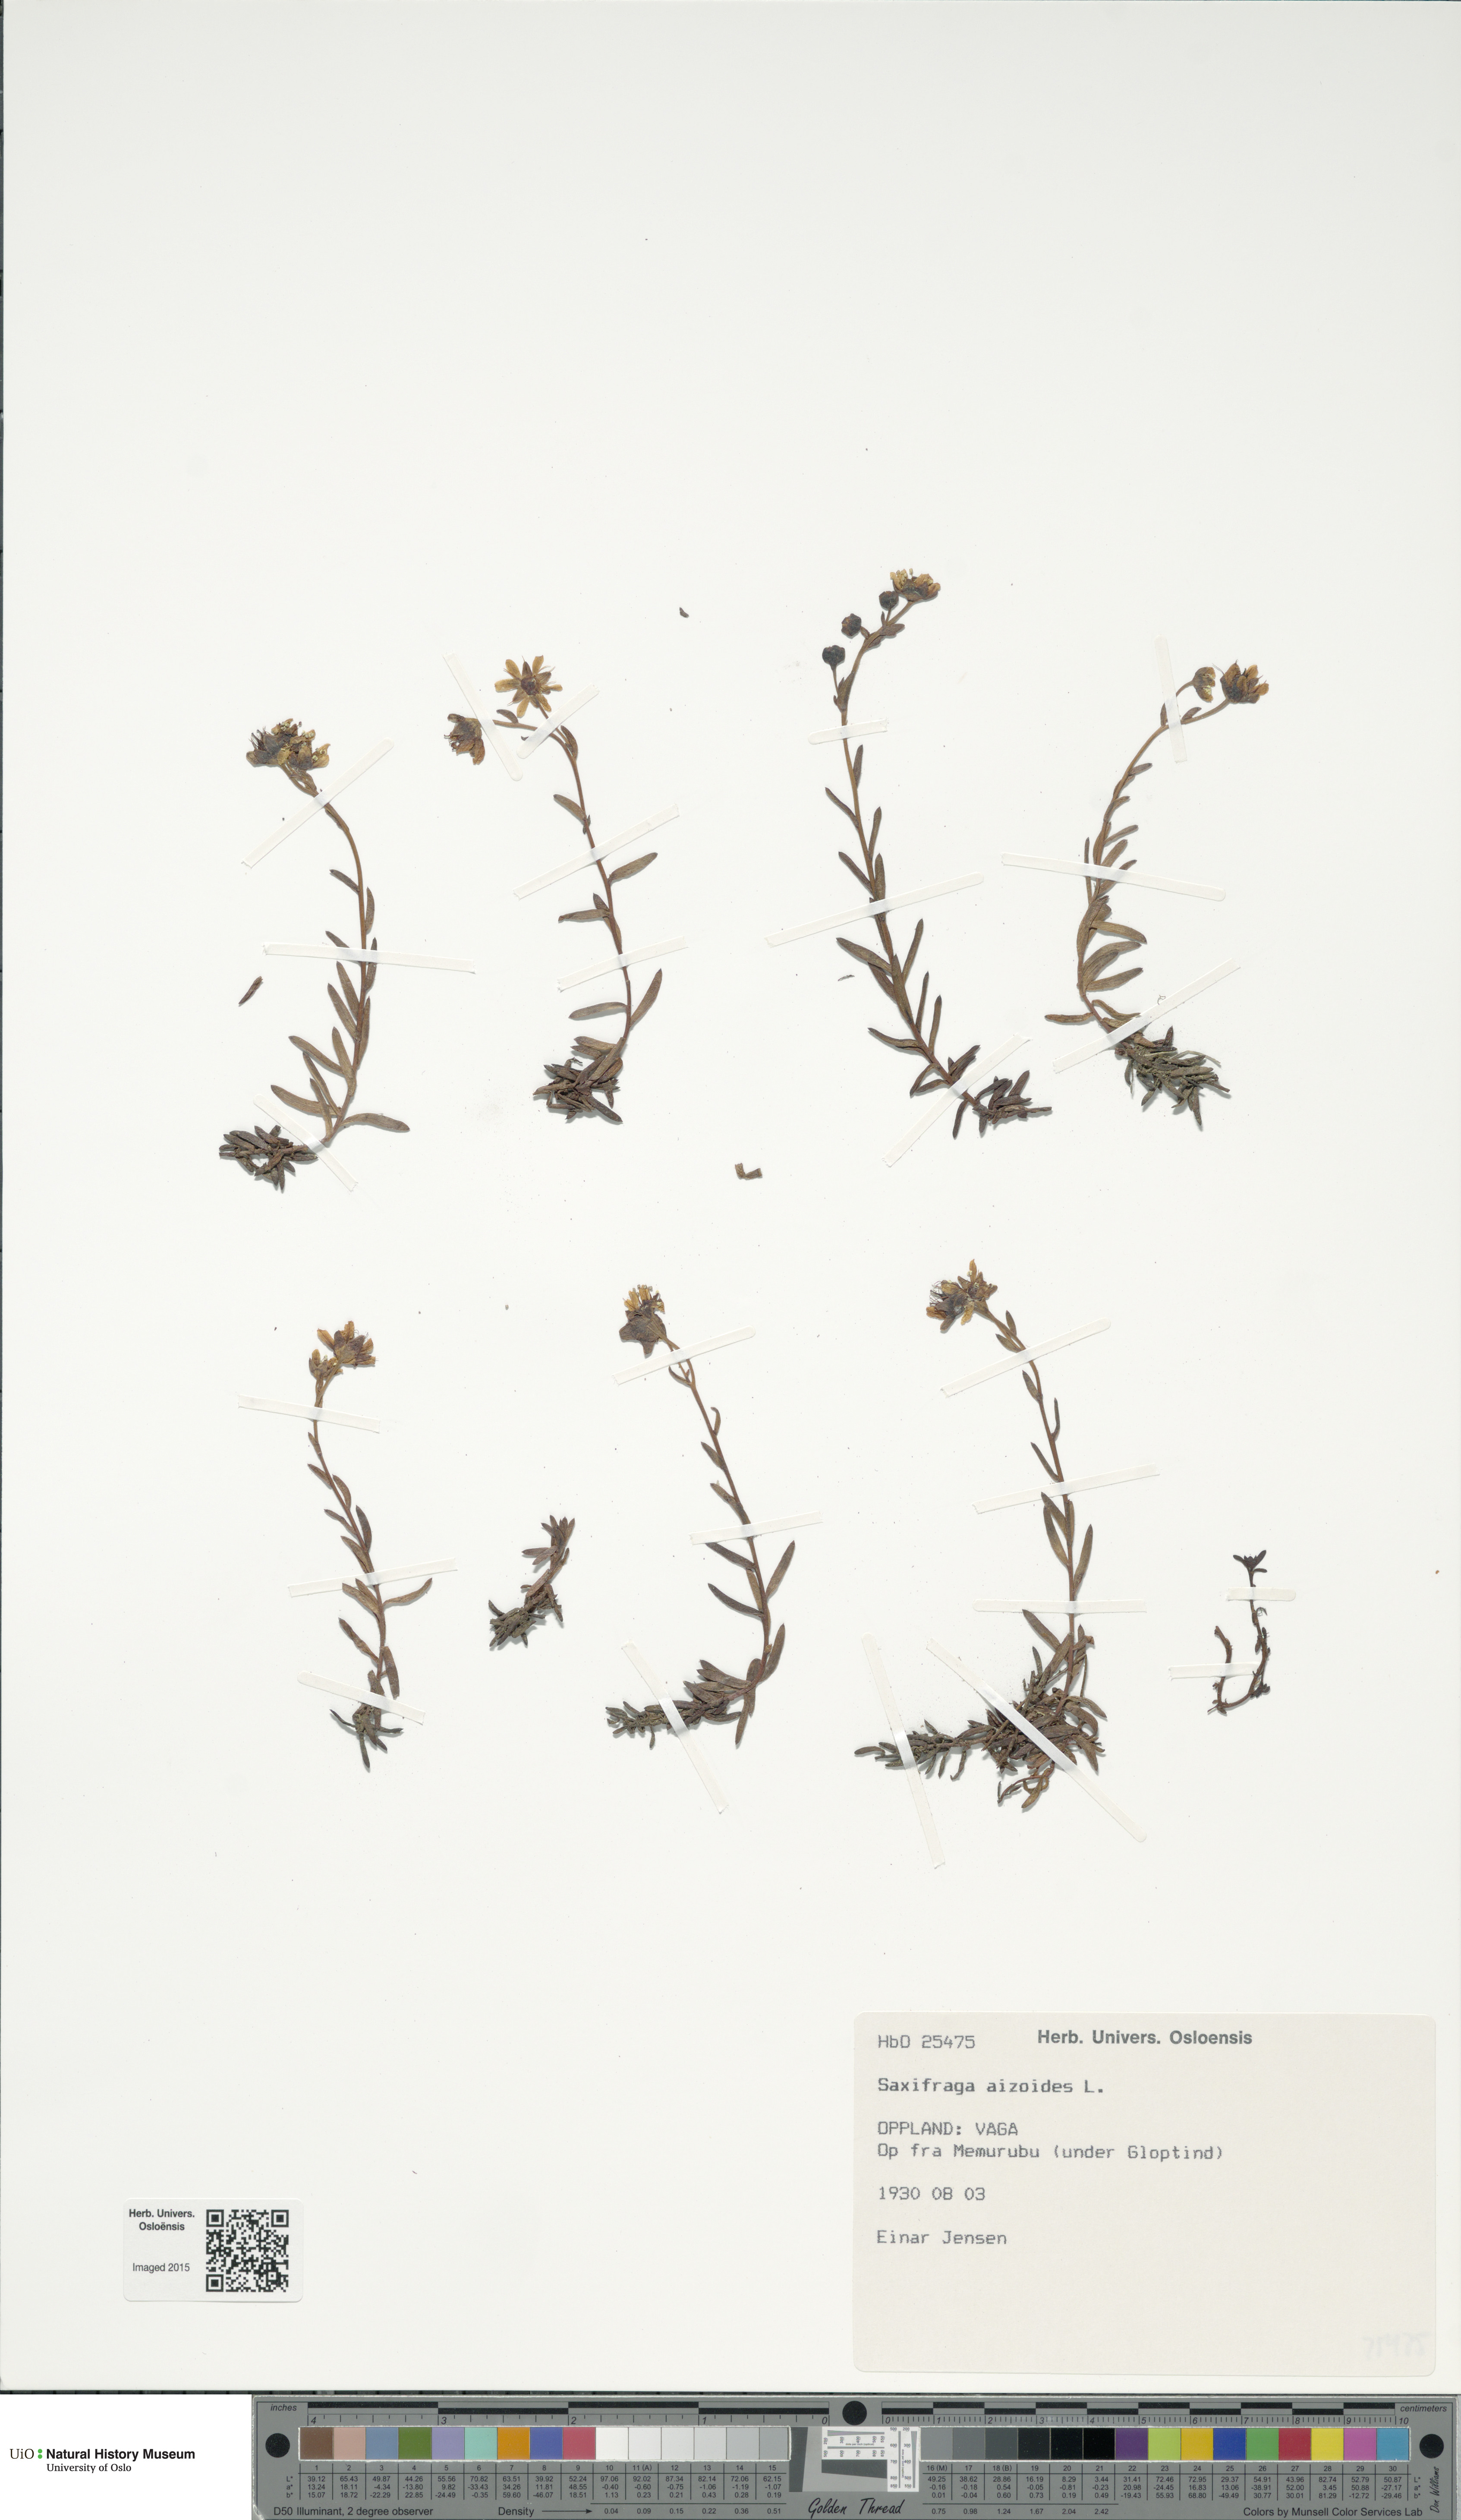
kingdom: Plantae
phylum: Tracheophyta
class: Magnoliopsida
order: Saxifragales
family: Saxifragaceae
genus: Saxifraga
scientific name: Saxifraga aizoides
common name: Yellow mountain saxifrage
